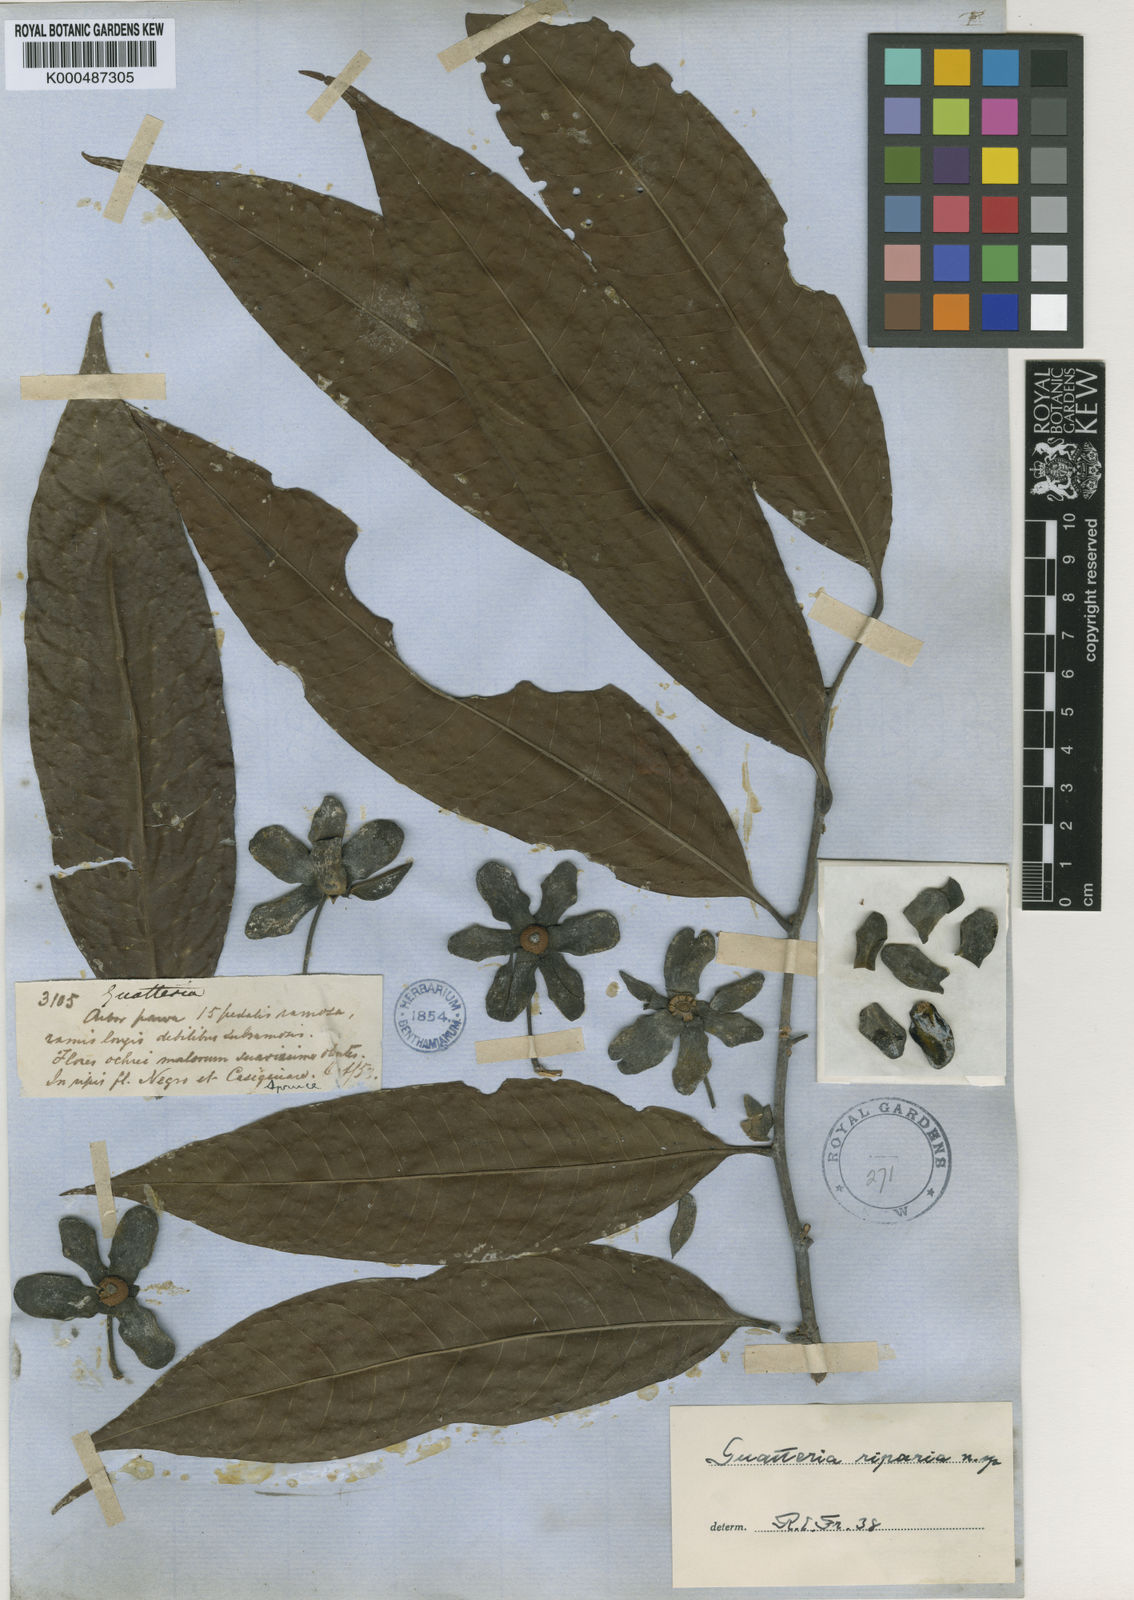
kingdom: Plantae
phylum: Tracheophyta
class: Magnoliopsida
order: Magnoliales
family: Annonaceae
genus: Guatteria
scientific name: Guatteria riparia
